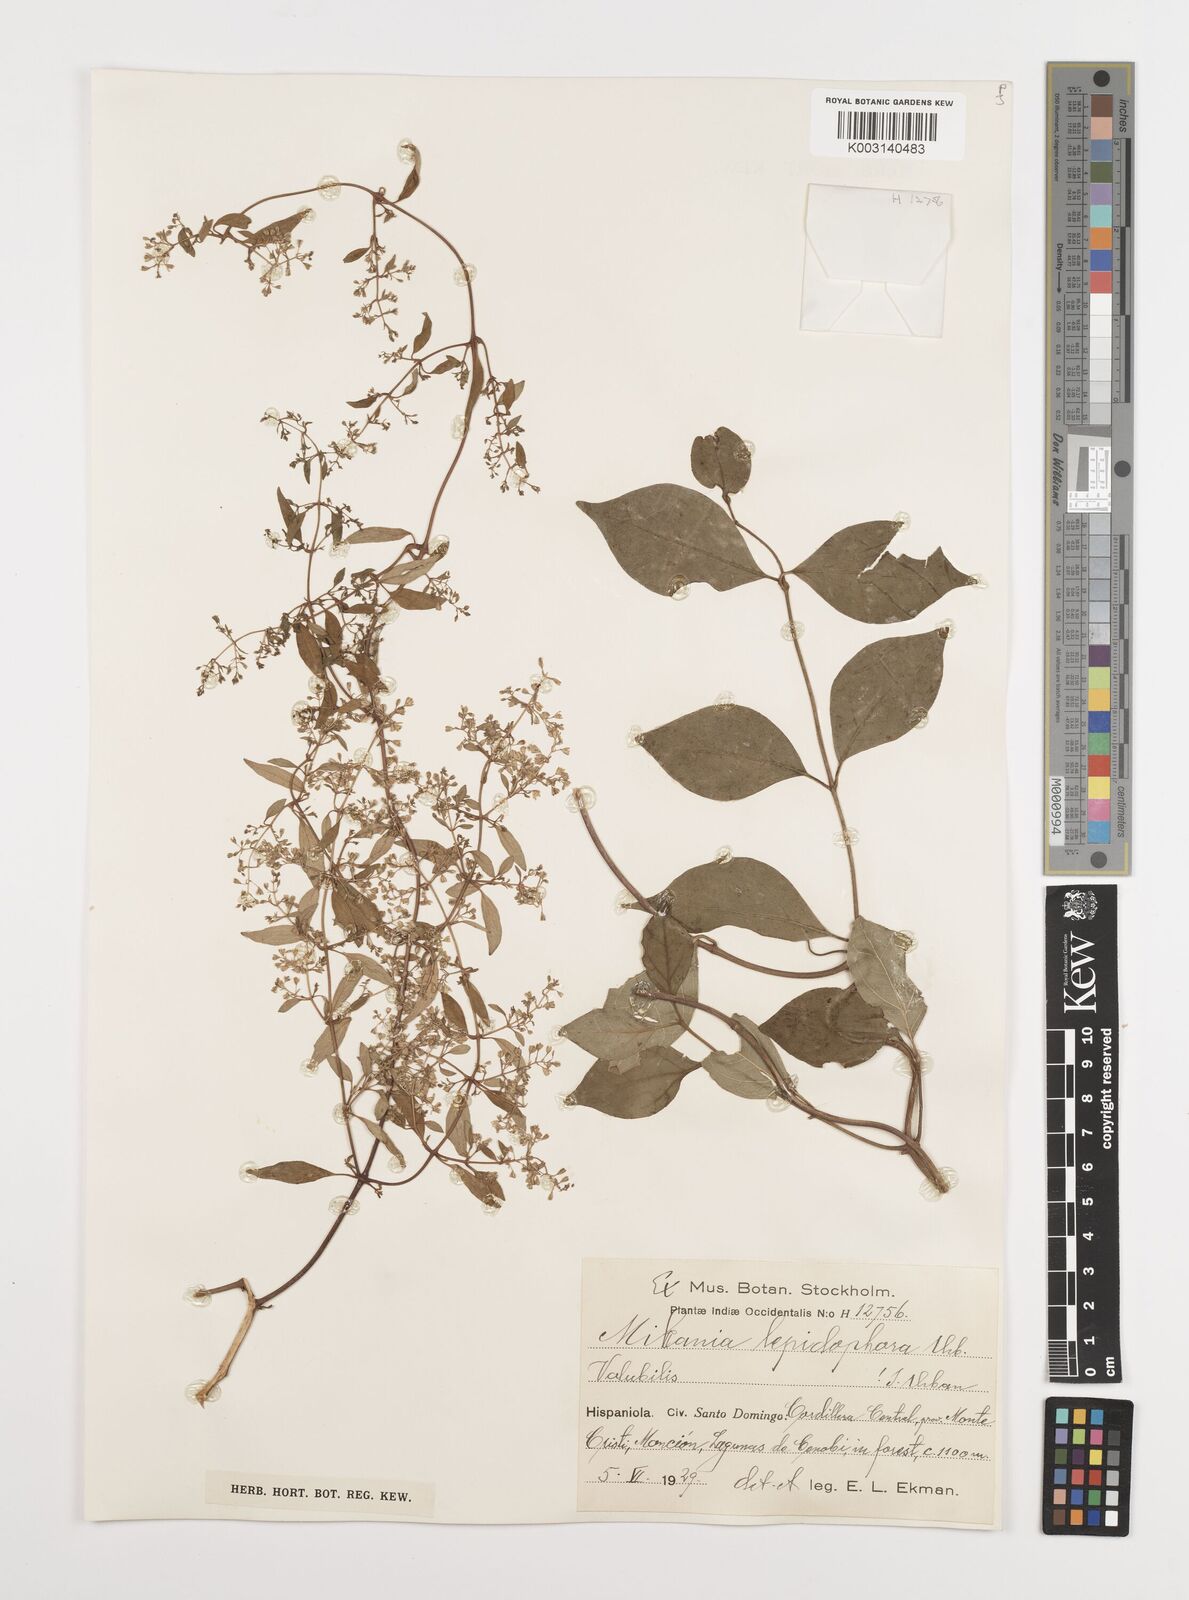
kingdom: Plantae
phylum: Tracheophyta
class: Magnoliopsida
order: Asterales
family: Asteraceae
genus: Mikania
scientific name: Mikania lepidophora
